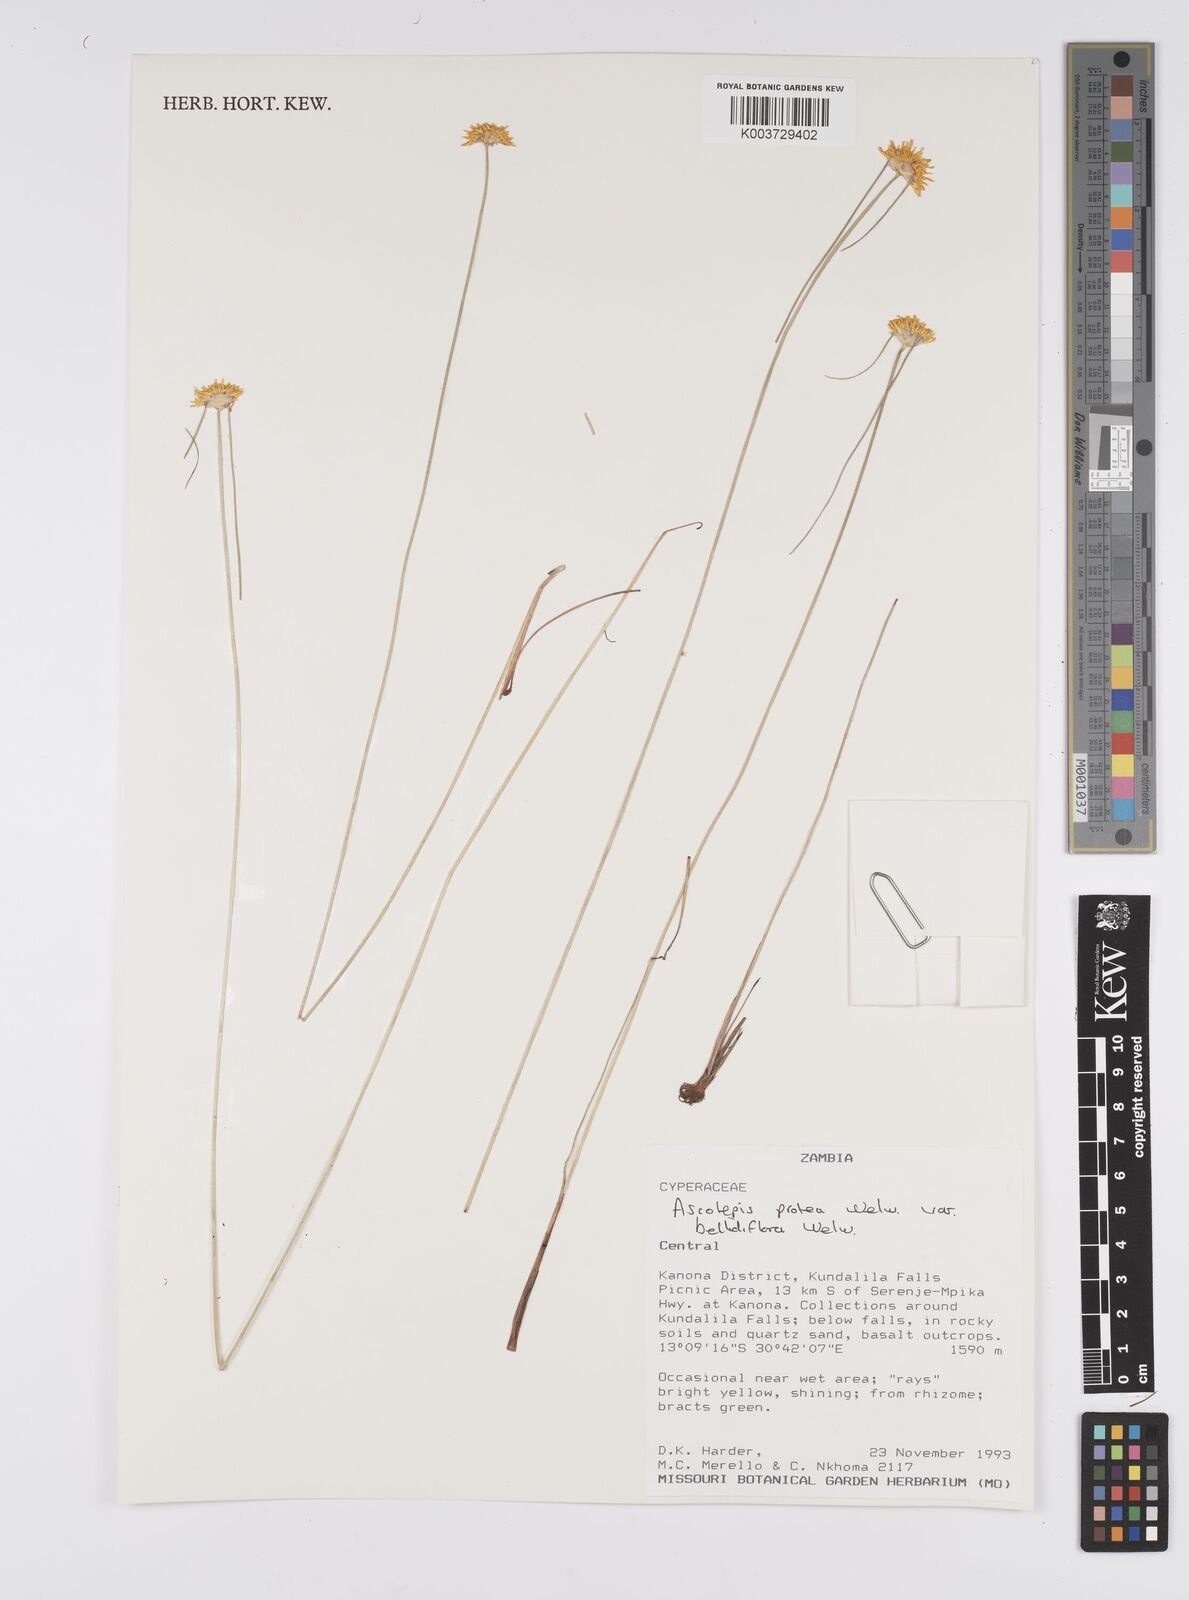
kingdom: Plantae
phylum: Tracheophyta
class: Liliopsida
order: Poales
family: Cyperaceae
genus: Cyperus
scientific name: Cyperus proteus
